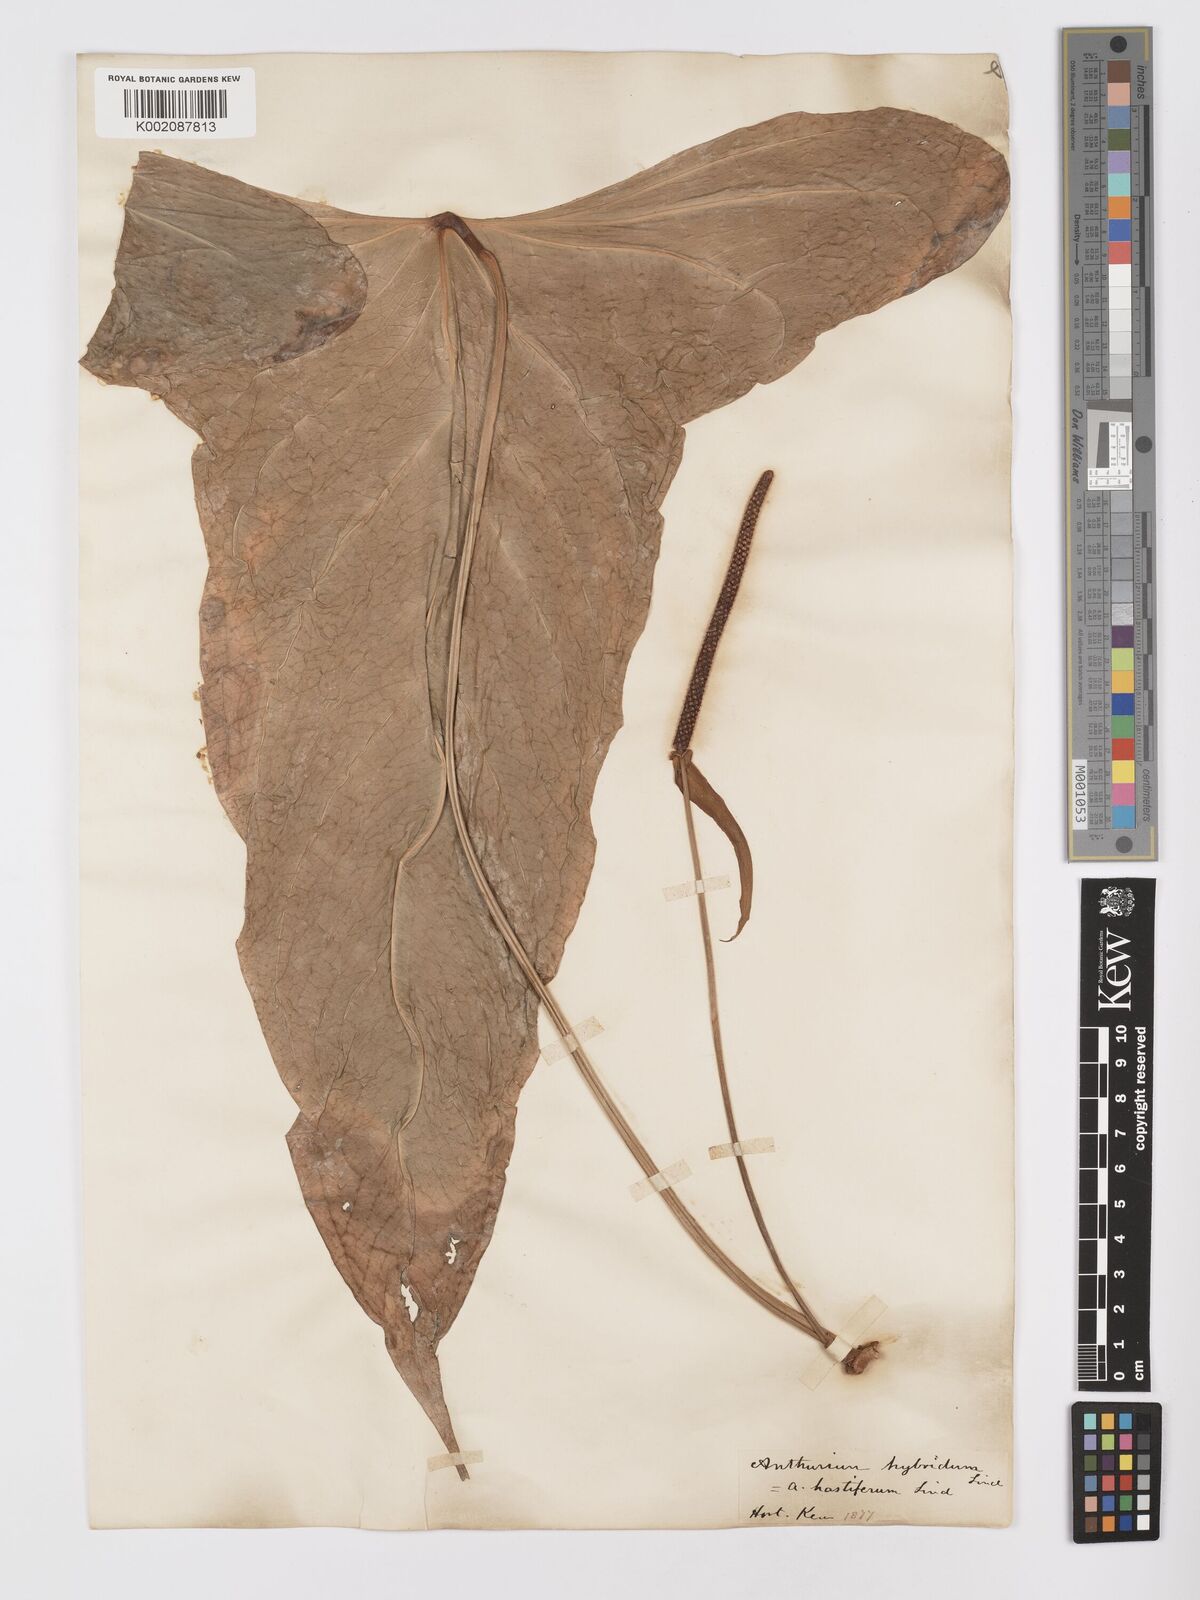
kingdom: Plantae
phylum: Tracheophyta
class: Liliopsida
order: Alismatales
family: Araceae
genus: Anthurium
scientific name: Anthurium
